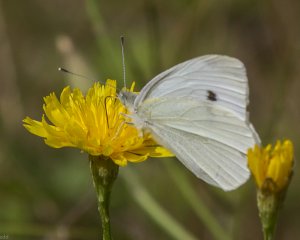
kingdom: Animalia
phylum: Arthropoda
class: Insecta
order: Lepidoptera
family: Pieridae
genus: Pieris
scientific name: Pieris rapae
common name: Cabbage White
